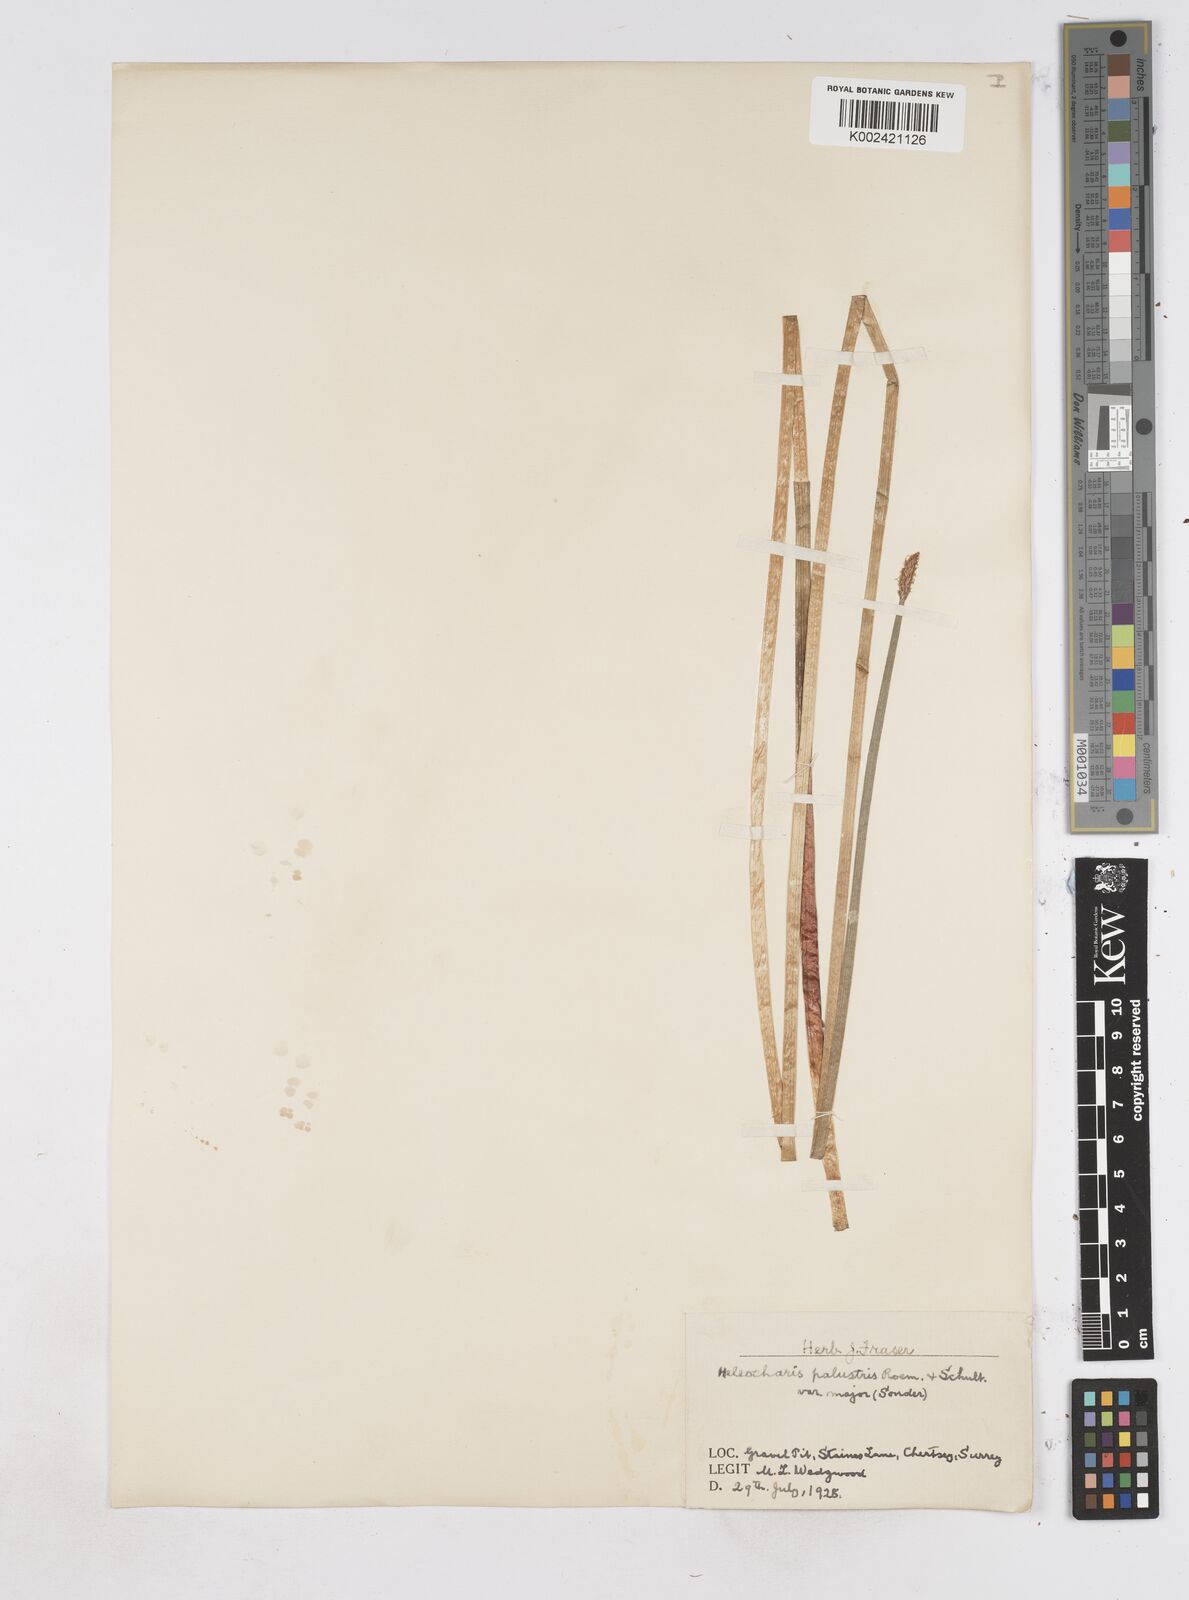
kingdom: Plantae
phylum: Tracheophyta
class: Liliopsida
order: Poales
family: Cyperaceae
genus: Eleocharis
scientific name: Eleocharis palustris
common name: Common spike-rush
